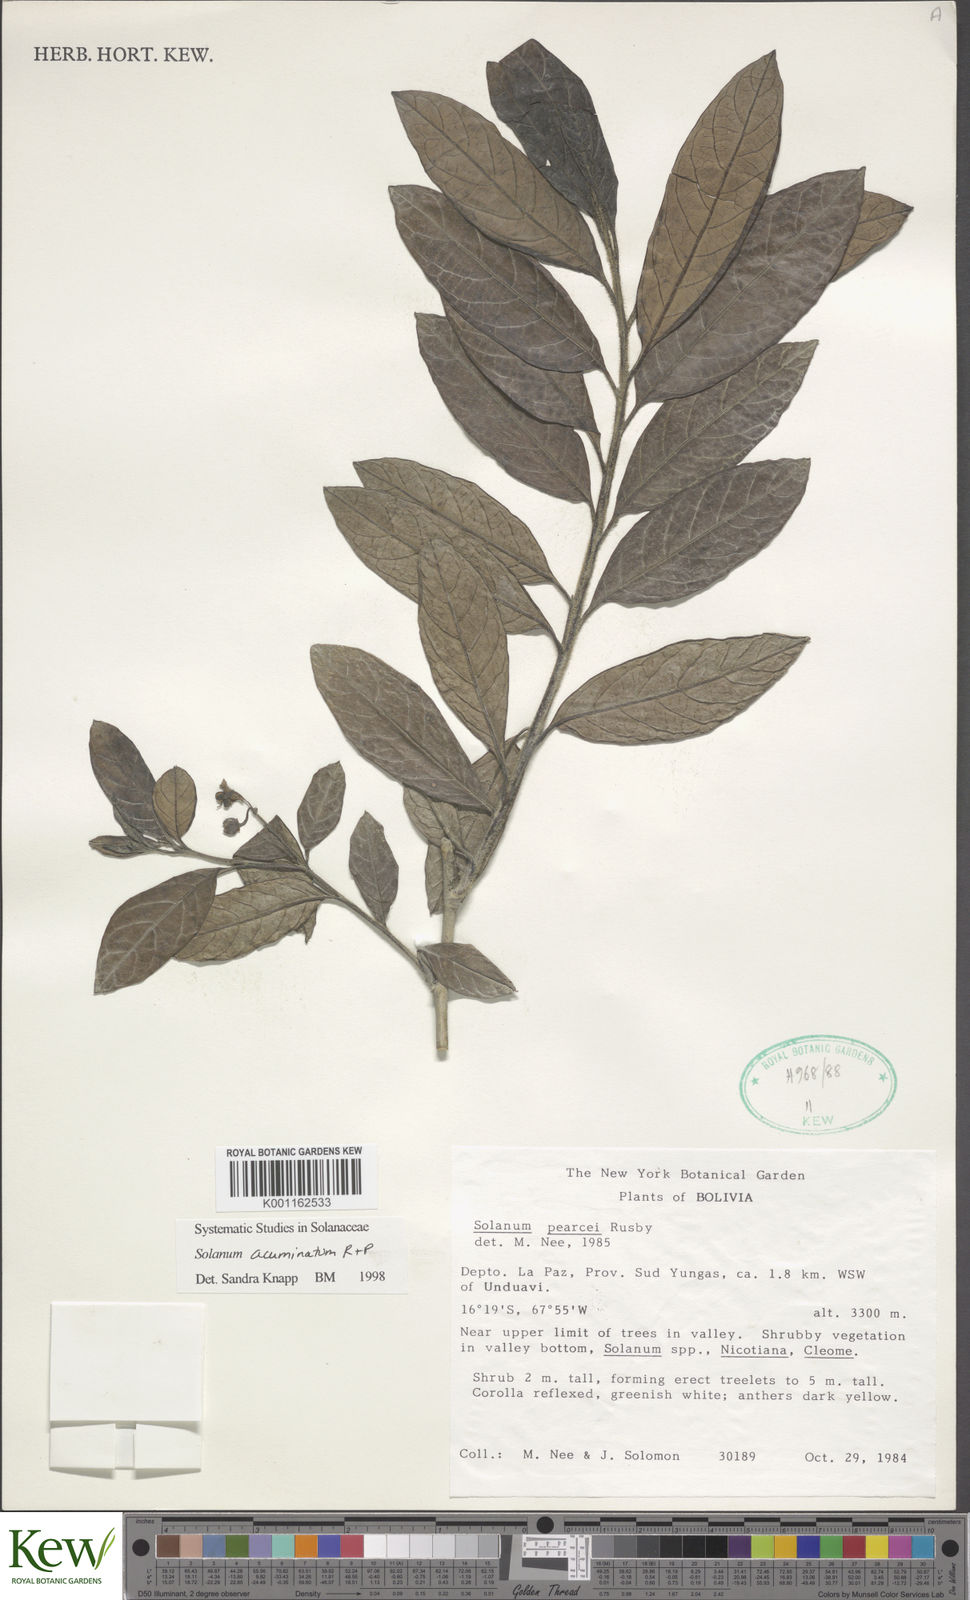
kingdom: Plantae
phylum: Tracheophyta
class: Magnoliopsida
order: Solanales
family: Solanaceae
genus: Solanum
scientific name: Solanum acuminatum
